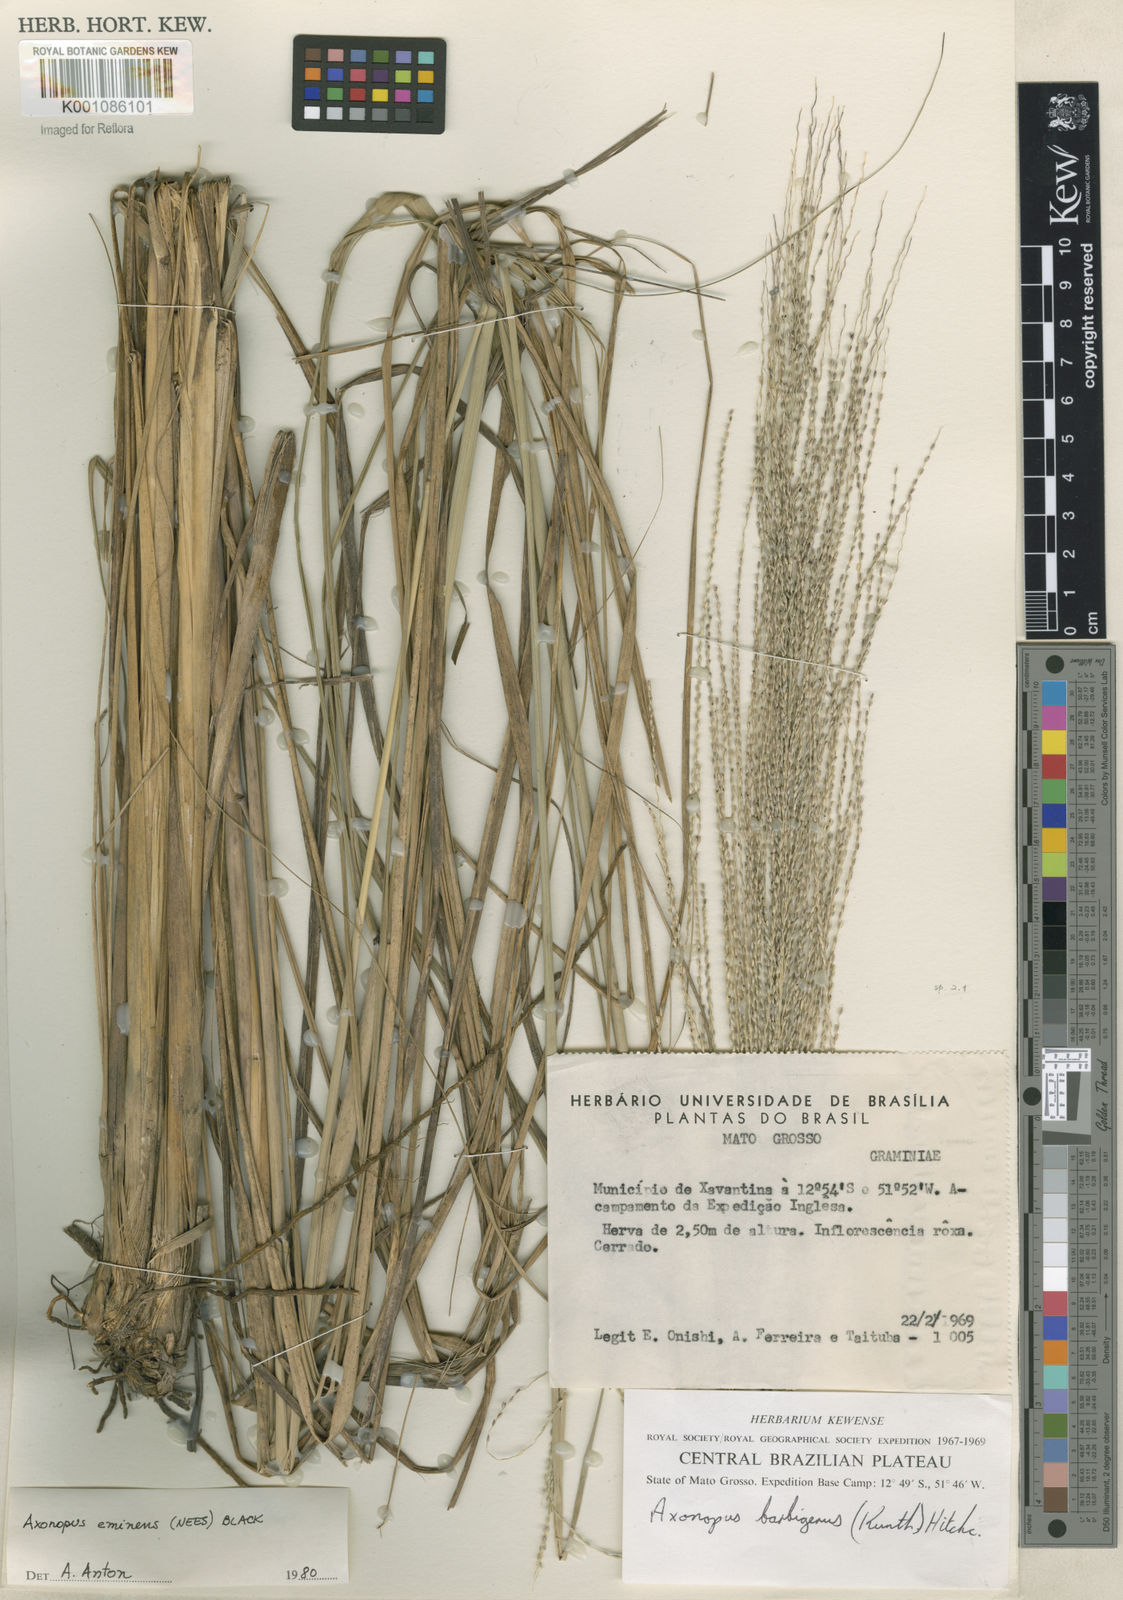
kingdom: Plantae
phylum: Tracheophyta
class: Liliopsida
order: Poales
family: Poaceae
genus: Axonopus
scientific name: Axonopus eminens
